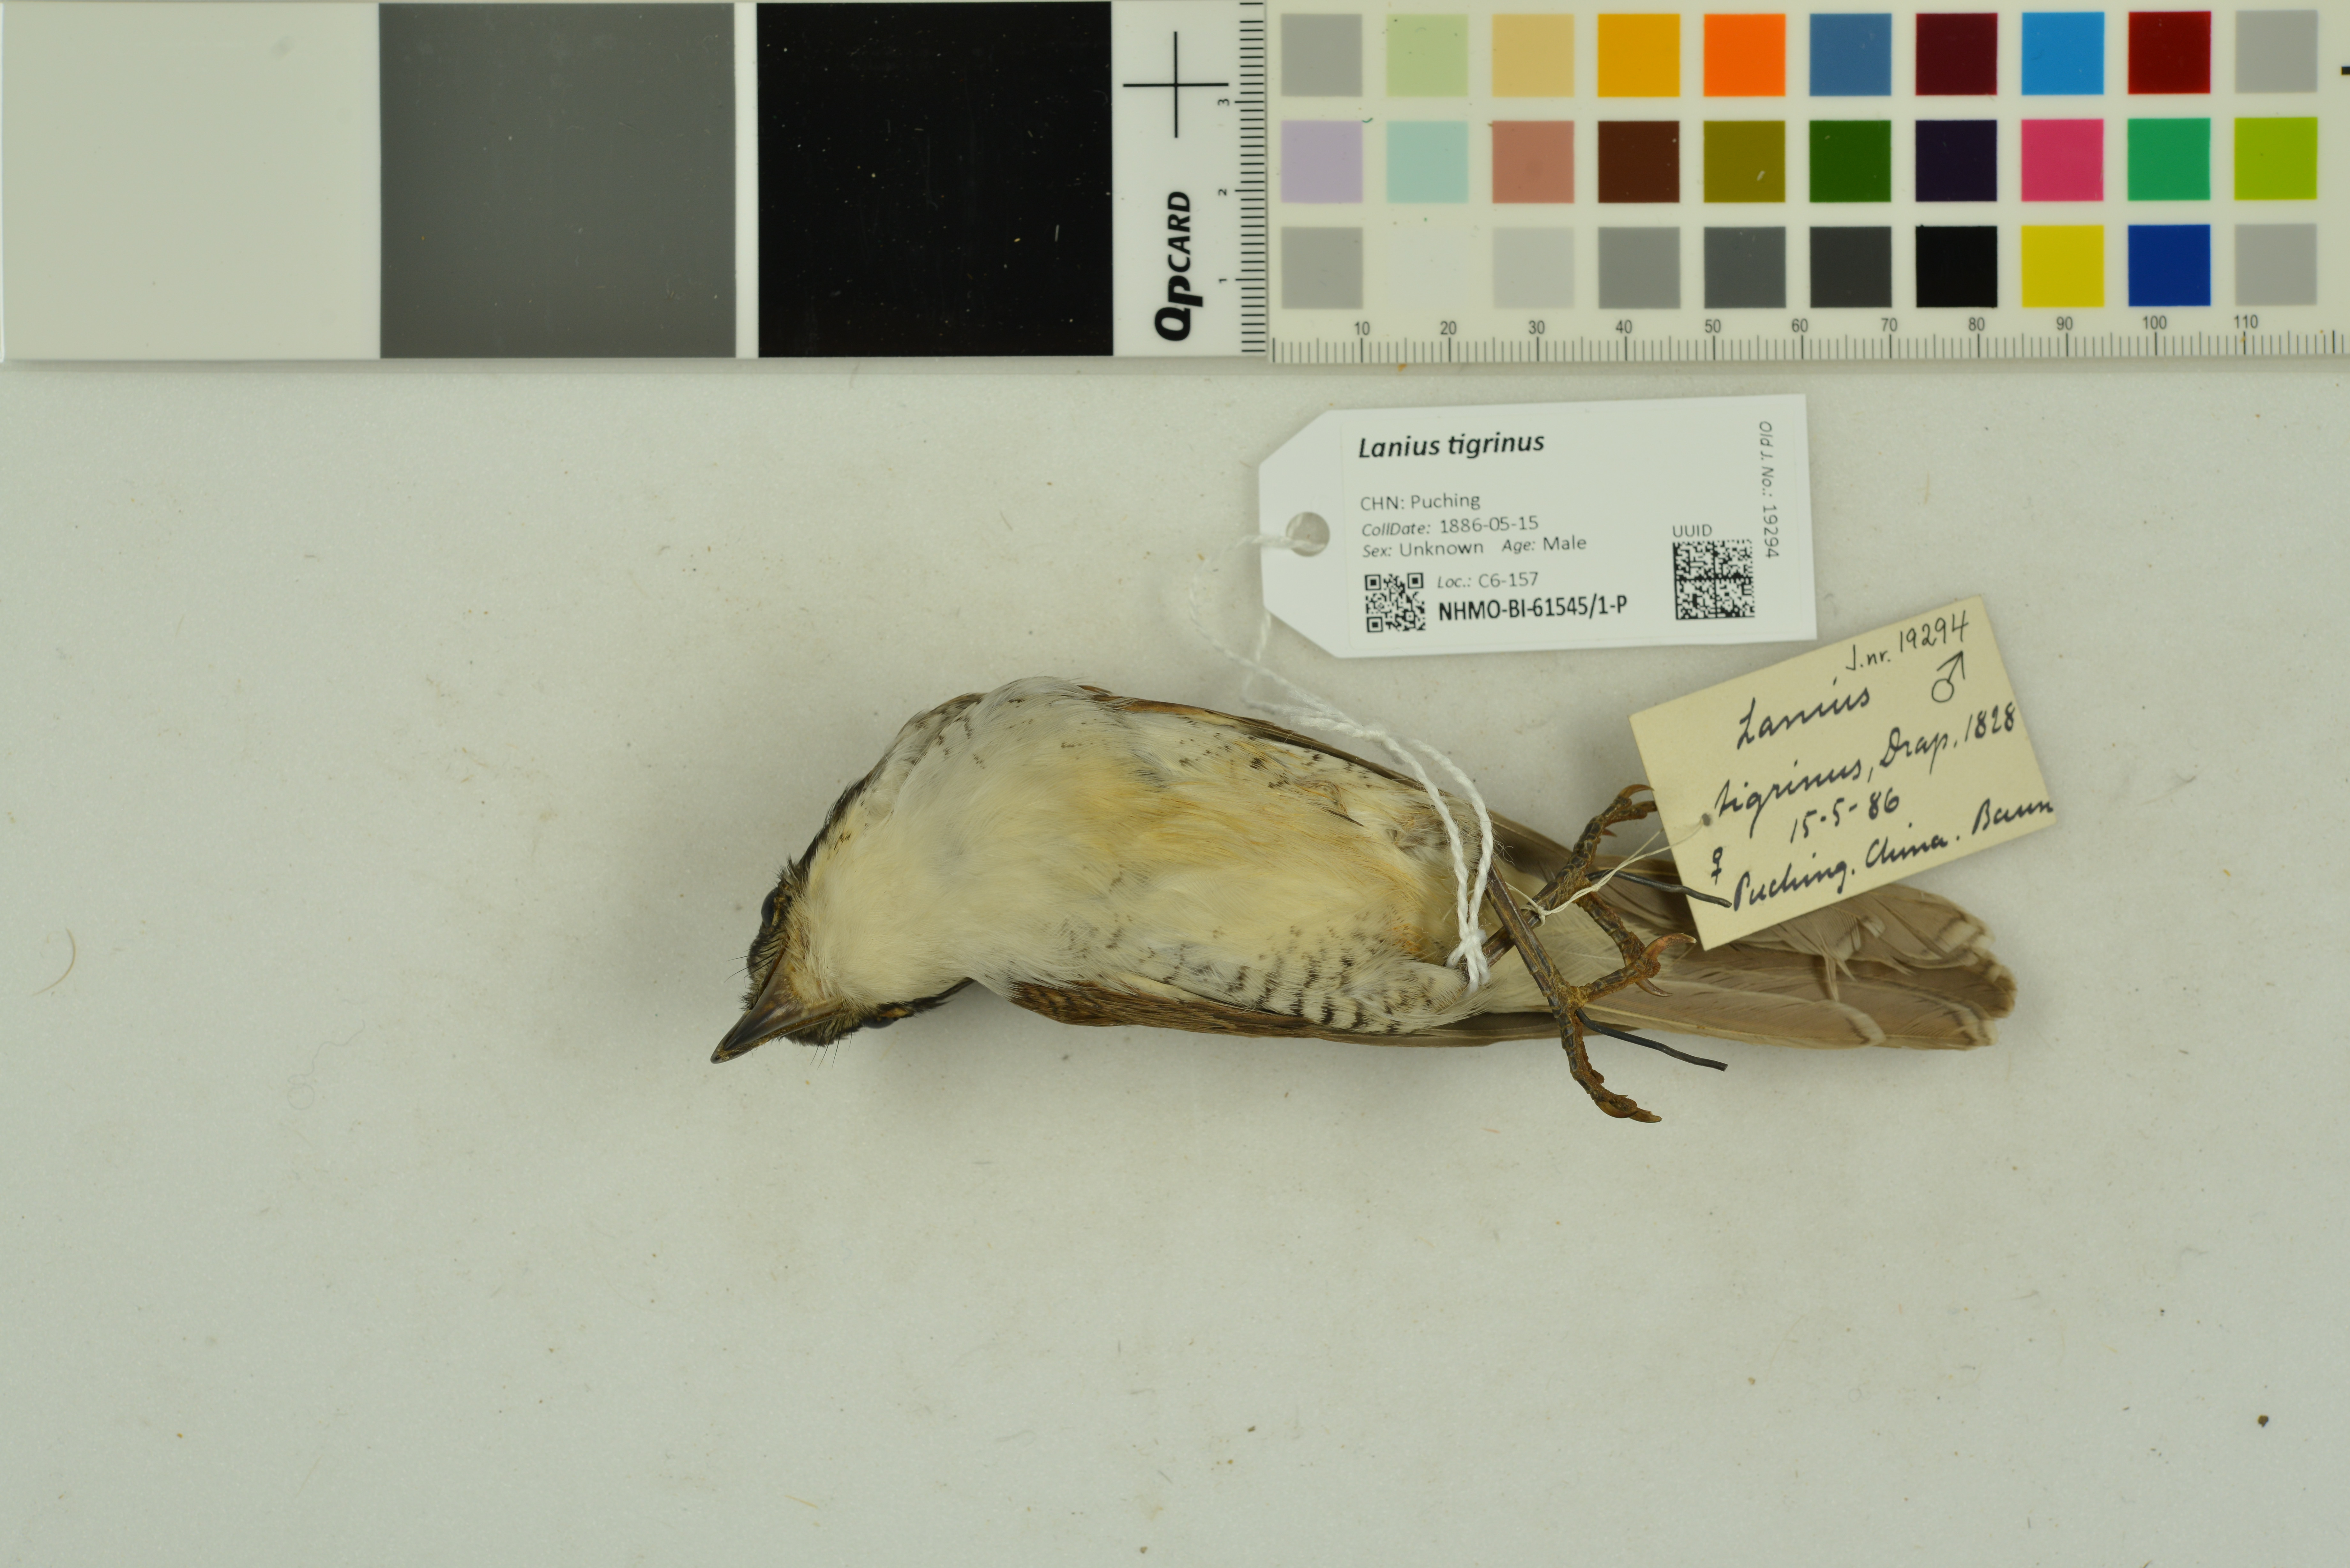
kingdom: Animalia
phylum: Chordata
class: Aves
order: Passeriformes
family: Laniidae
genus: Lanius
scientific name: Lanius tigrinus
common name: Tiger shrike
